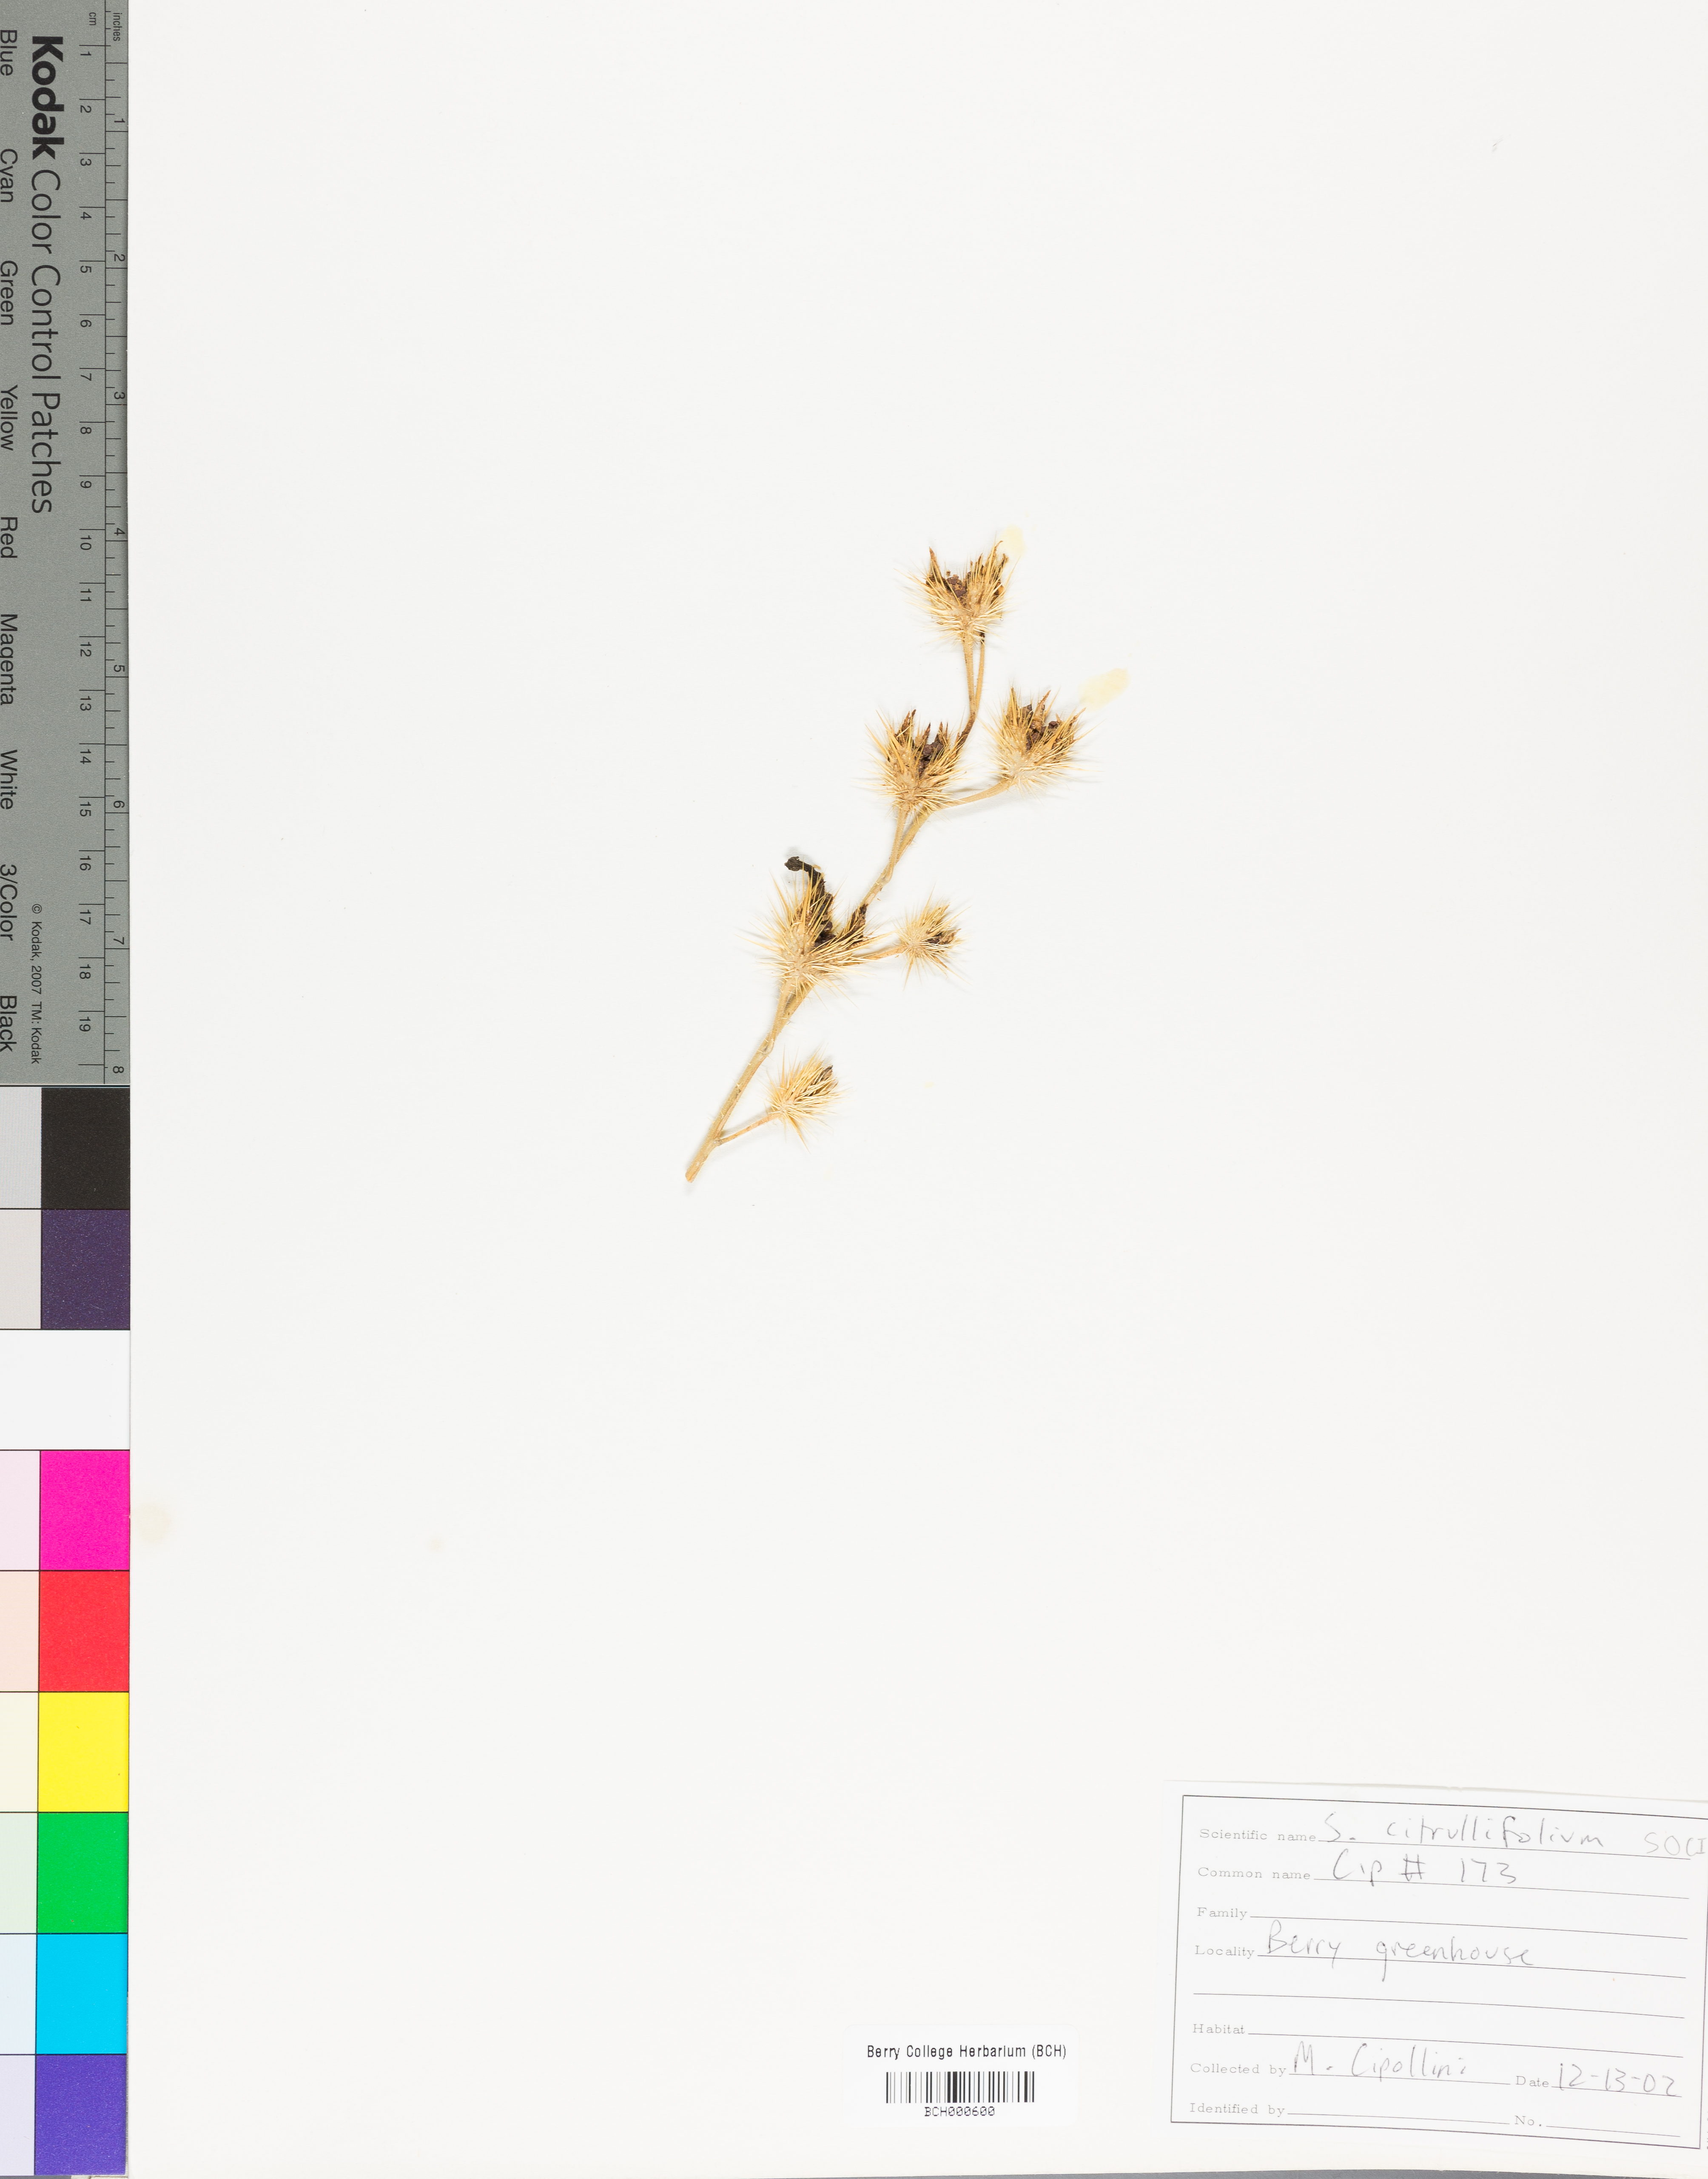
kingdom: Plantae
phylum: Tracheophyta
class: Magnoliopsida
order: Solanales
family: Solanaceae
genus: Solanum
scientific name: Solanum citrullifolium
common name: Melon-leaf nightshade
